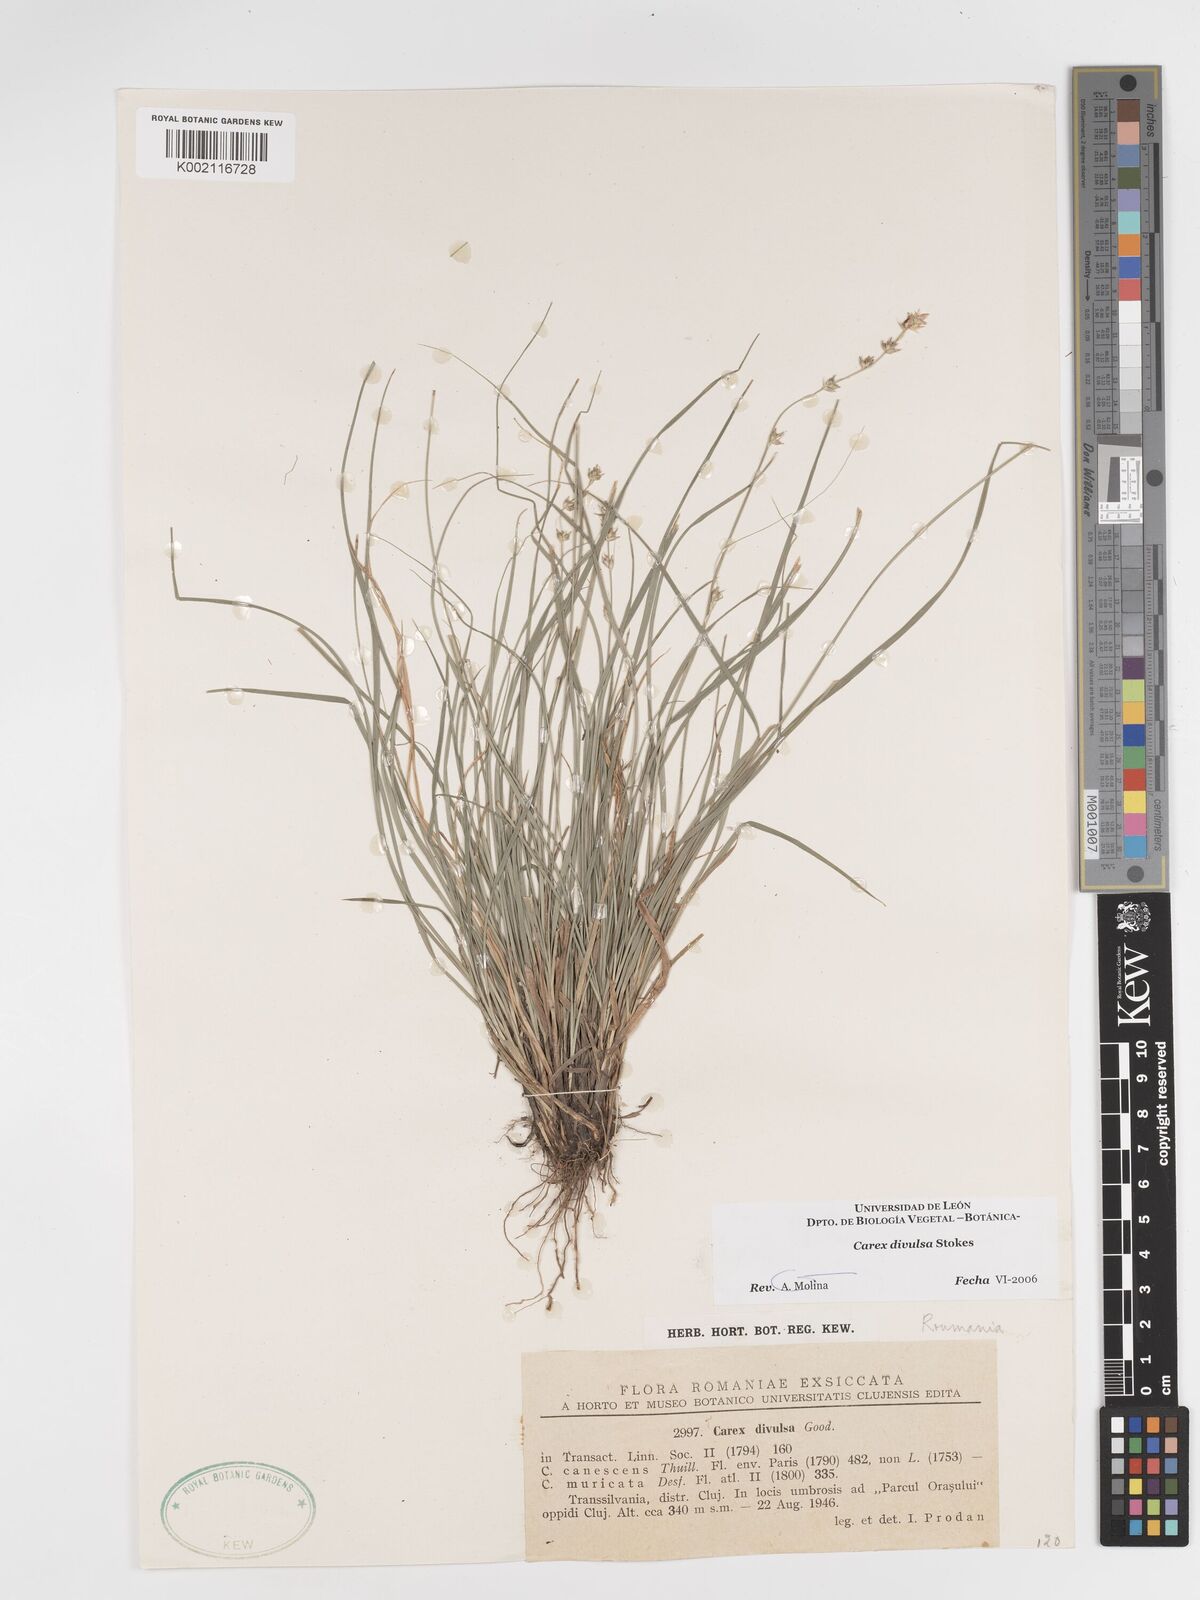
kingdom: Plantae
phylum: Tracheophyta
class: Liliopsida
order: Poales
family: Cyperaceae
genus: Carex
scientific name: Carex divulsa
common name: Grassland sedge
